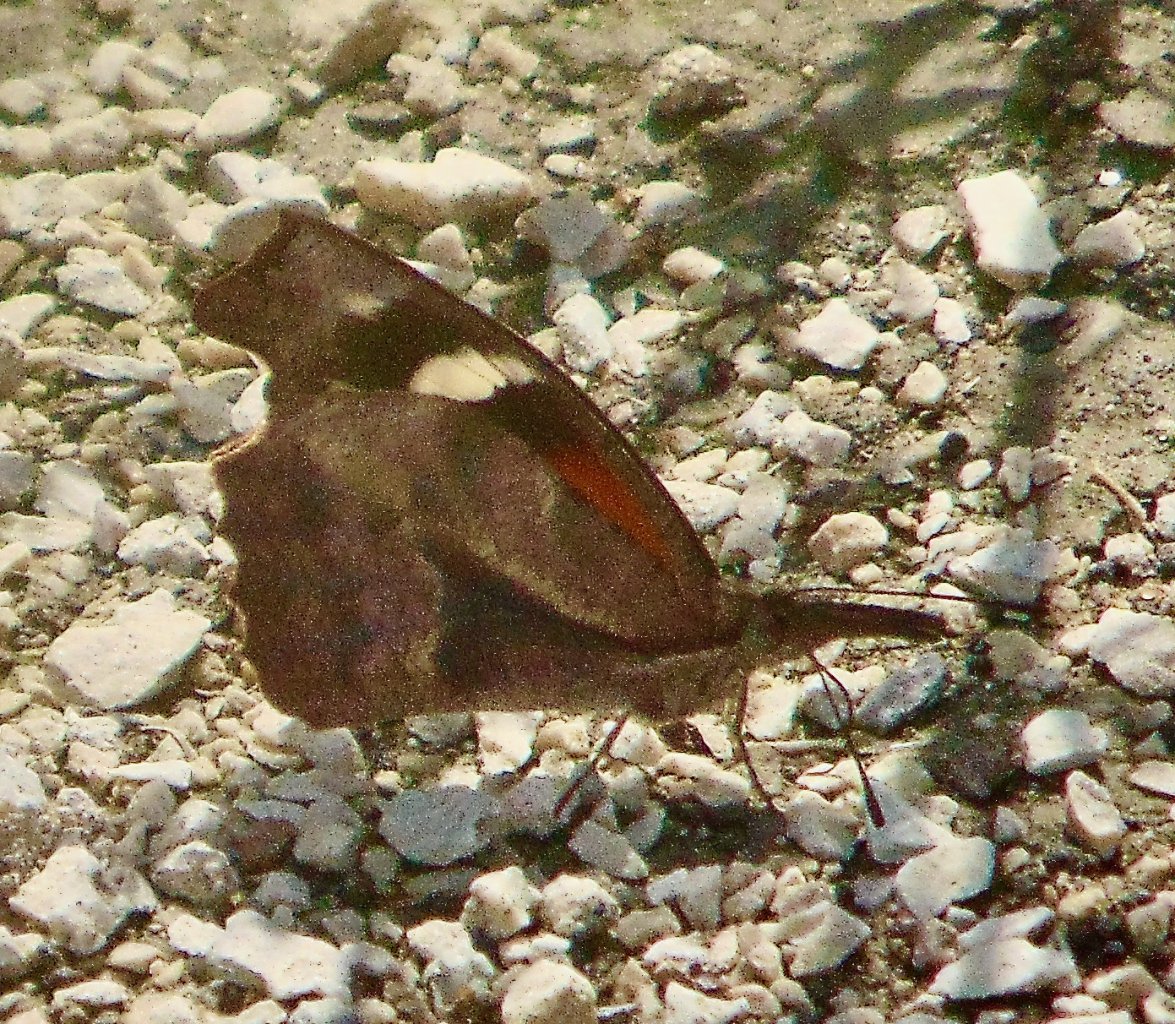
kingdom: Animalia
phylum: Arthropoda
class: Insecta
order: Lepidoptera
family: Nymphalidae
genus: Libytheana
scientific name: Libytheana carinenta
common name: American Snout
